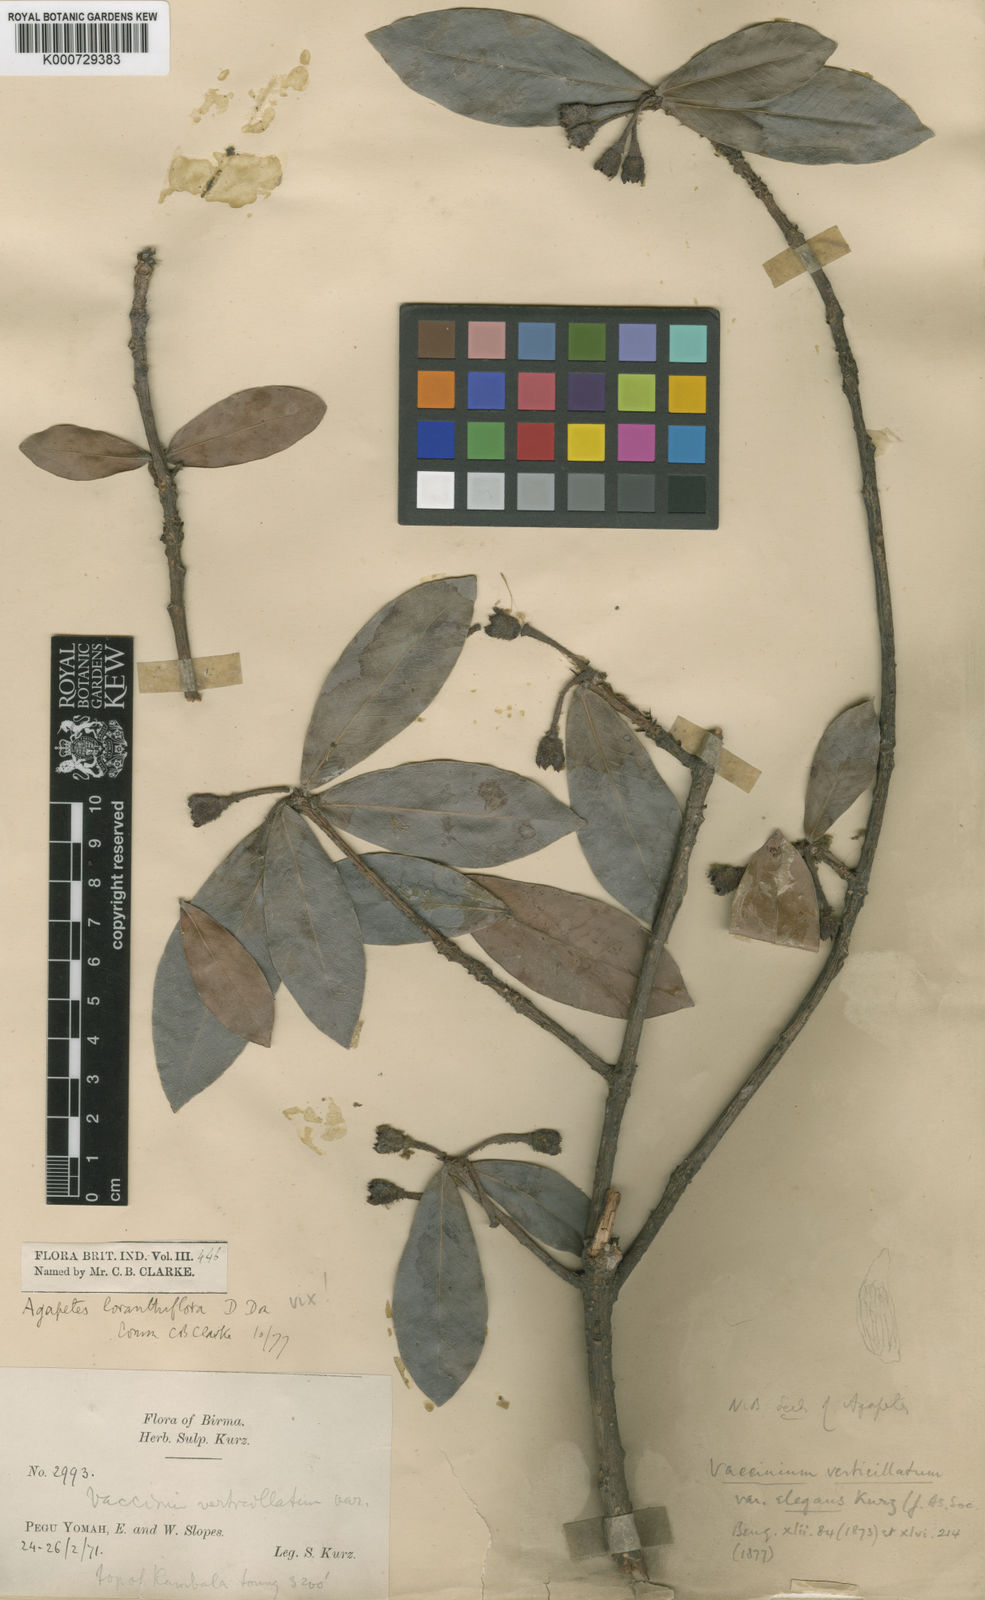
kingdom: Plantae
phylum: Tracheophyta
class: Magnoliopsida
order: Ericales
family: Ericaceae
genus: Agapetes
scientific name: Agapetes variegata
